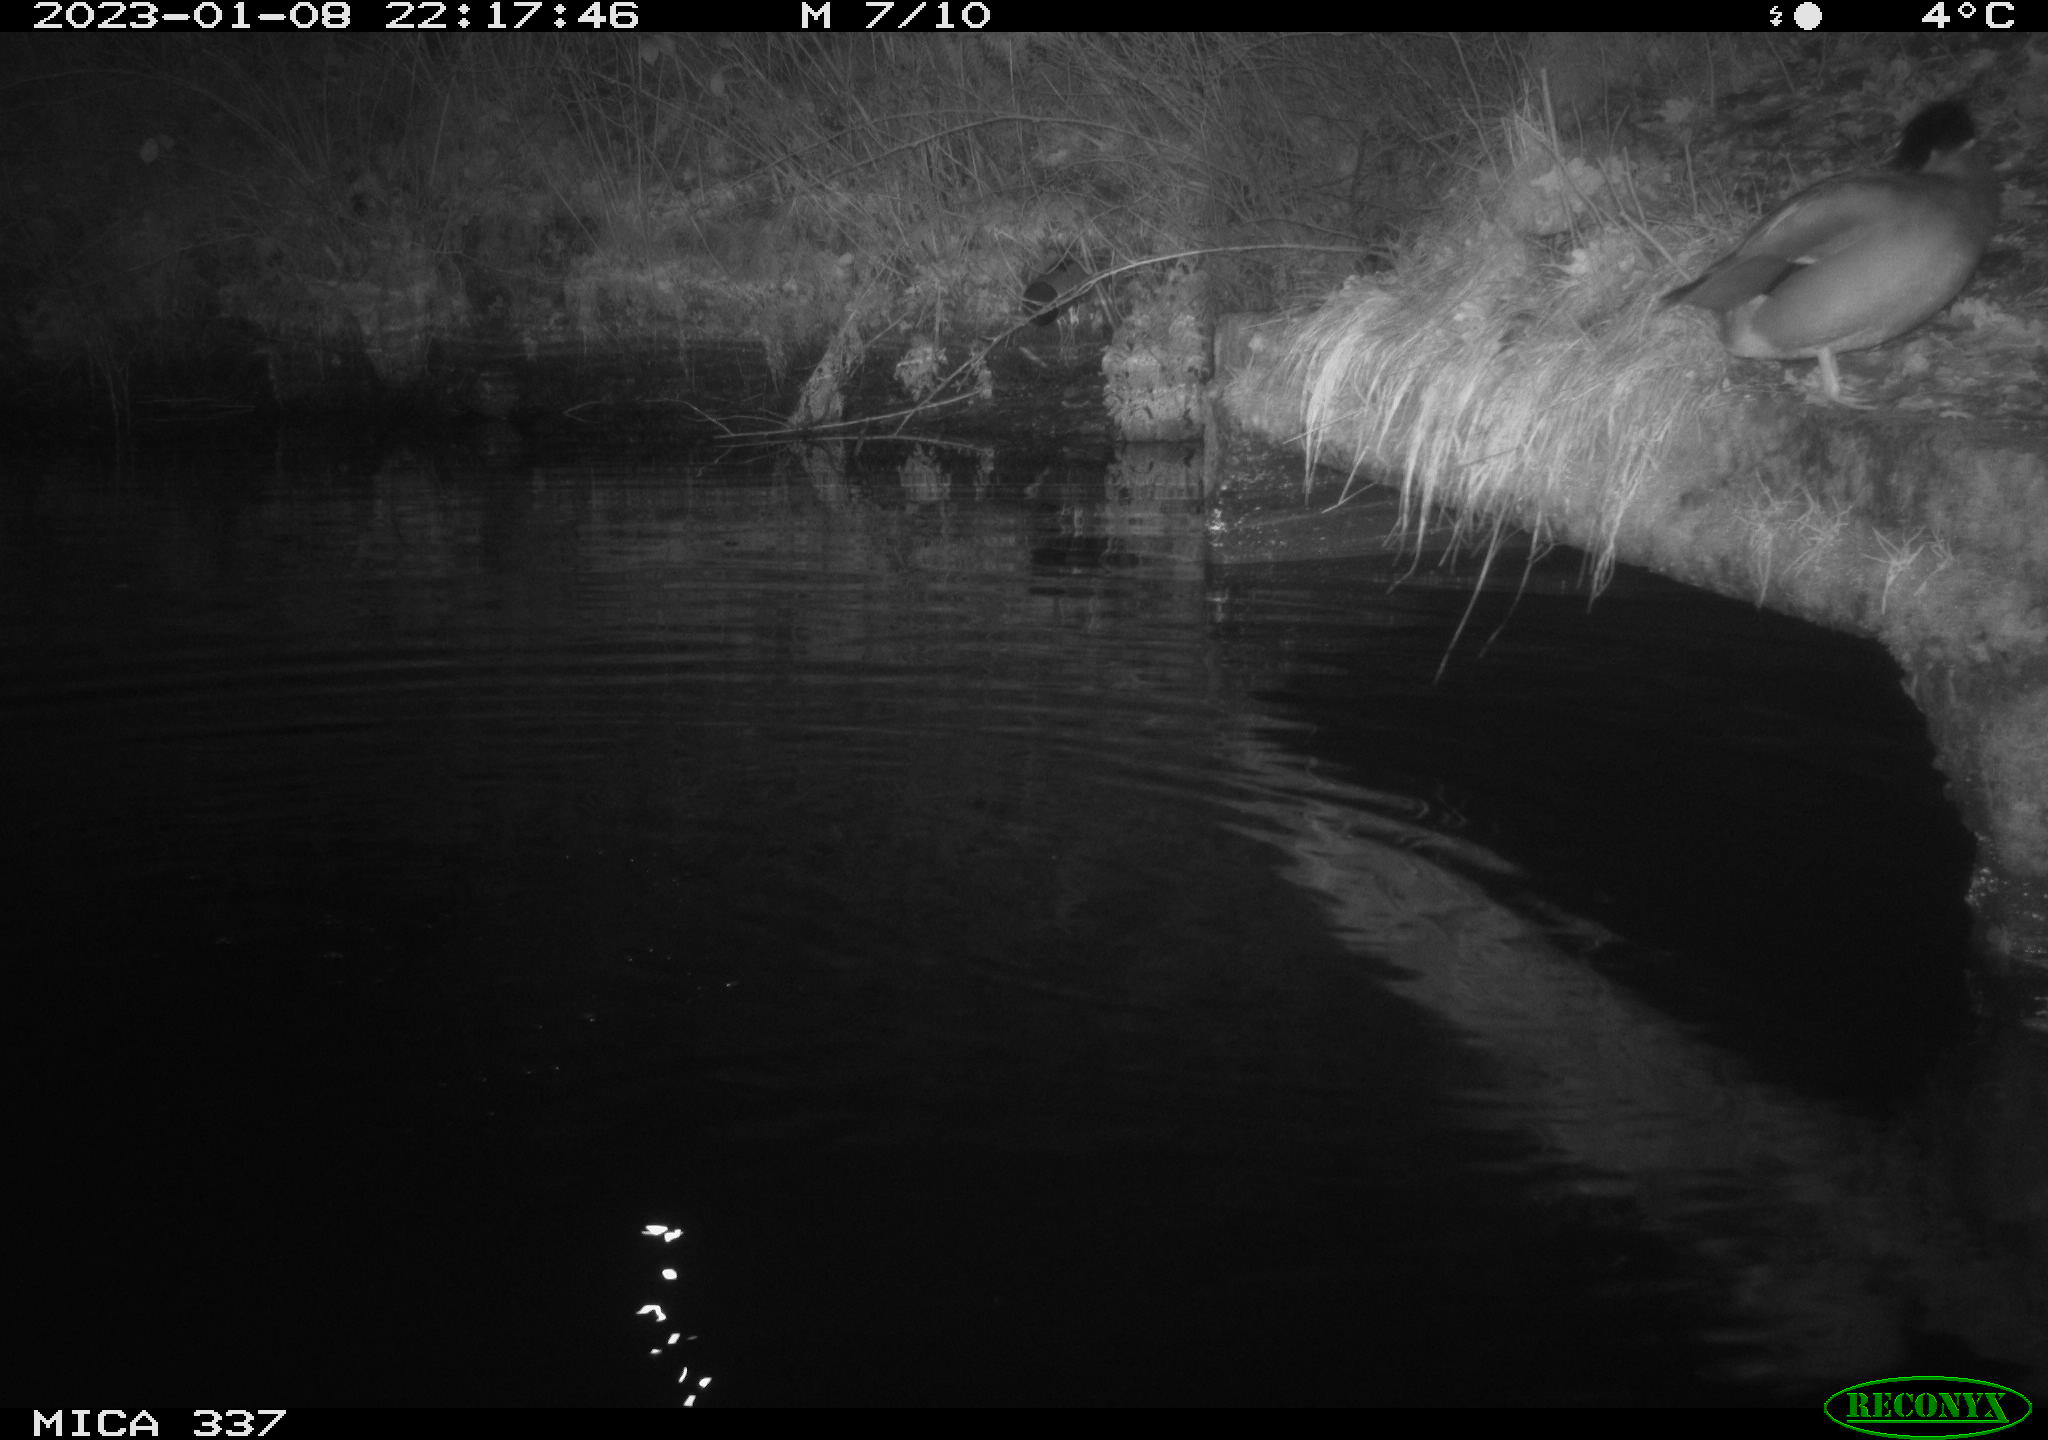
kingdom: Animalia
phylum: Chordata
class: Aves
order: Anseriformes
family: Anatidae
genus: Anas
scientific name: Anas
